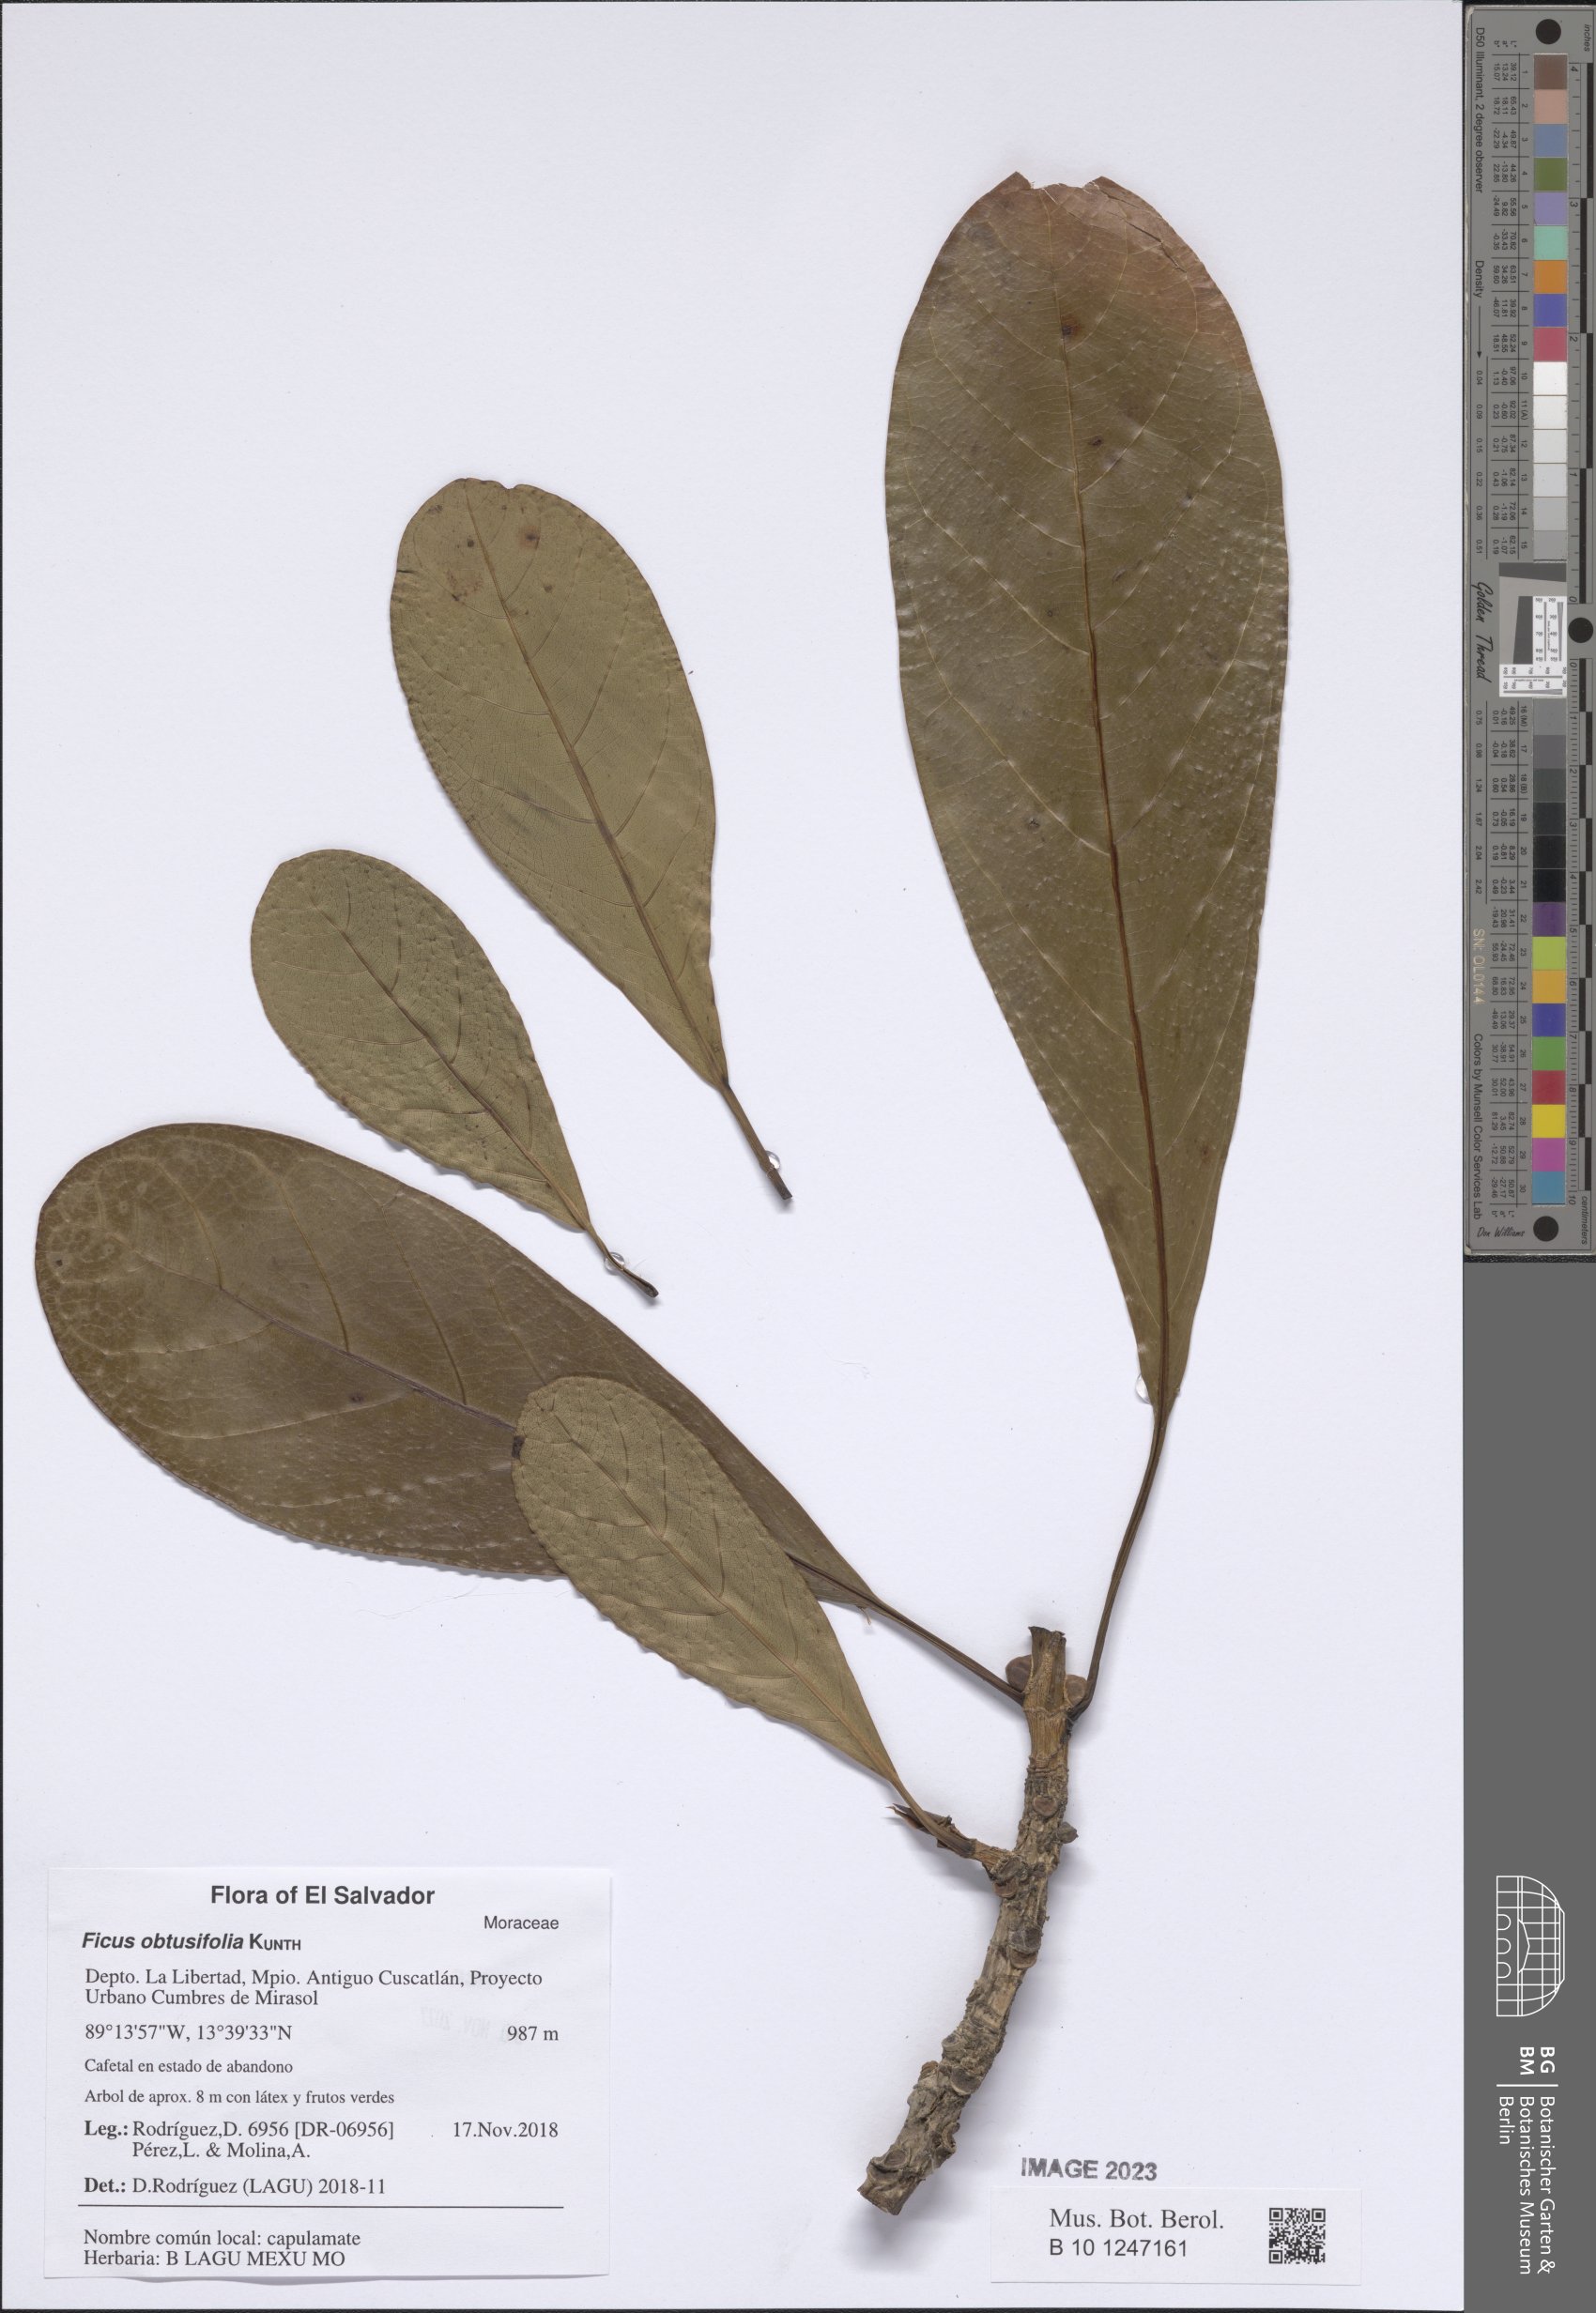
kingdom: Plantae
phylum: Tracheophyta
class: Magnoliopsida
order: Rosales
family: Moraceae
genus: Ficus
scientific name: Ficus obtusifolia
